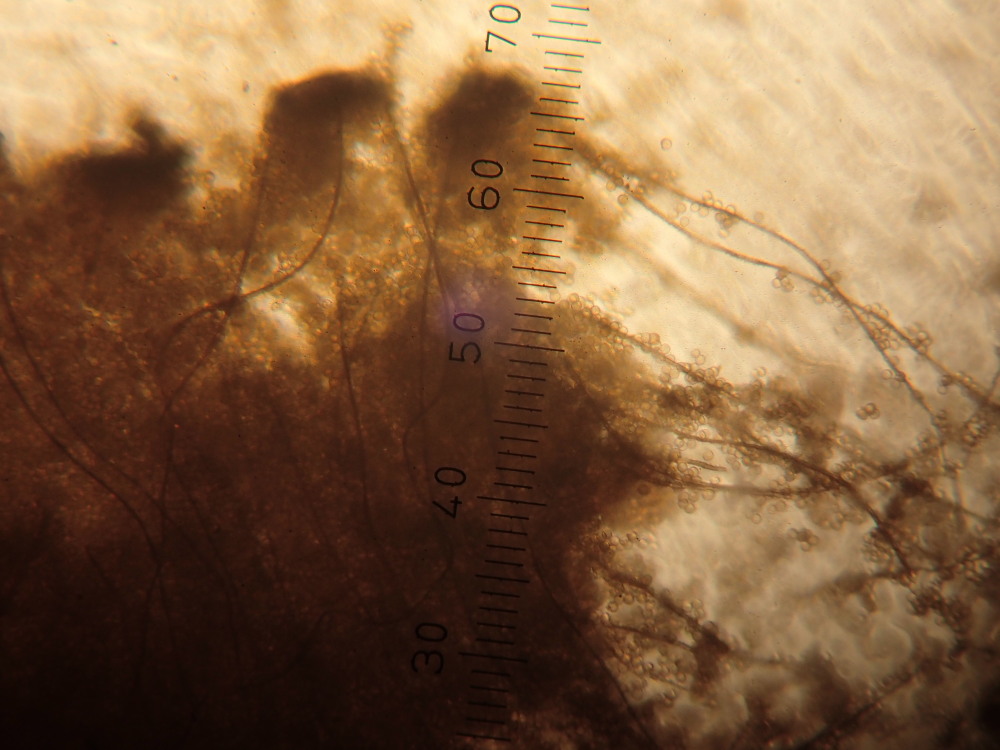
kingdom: Protozoa
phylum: Mycetozoa
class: Myxomycetes
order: Trichiales
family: Dictydiaethaliaceae
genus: Dictydiaethalium
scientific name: Dictydiaethalium plumbeum
